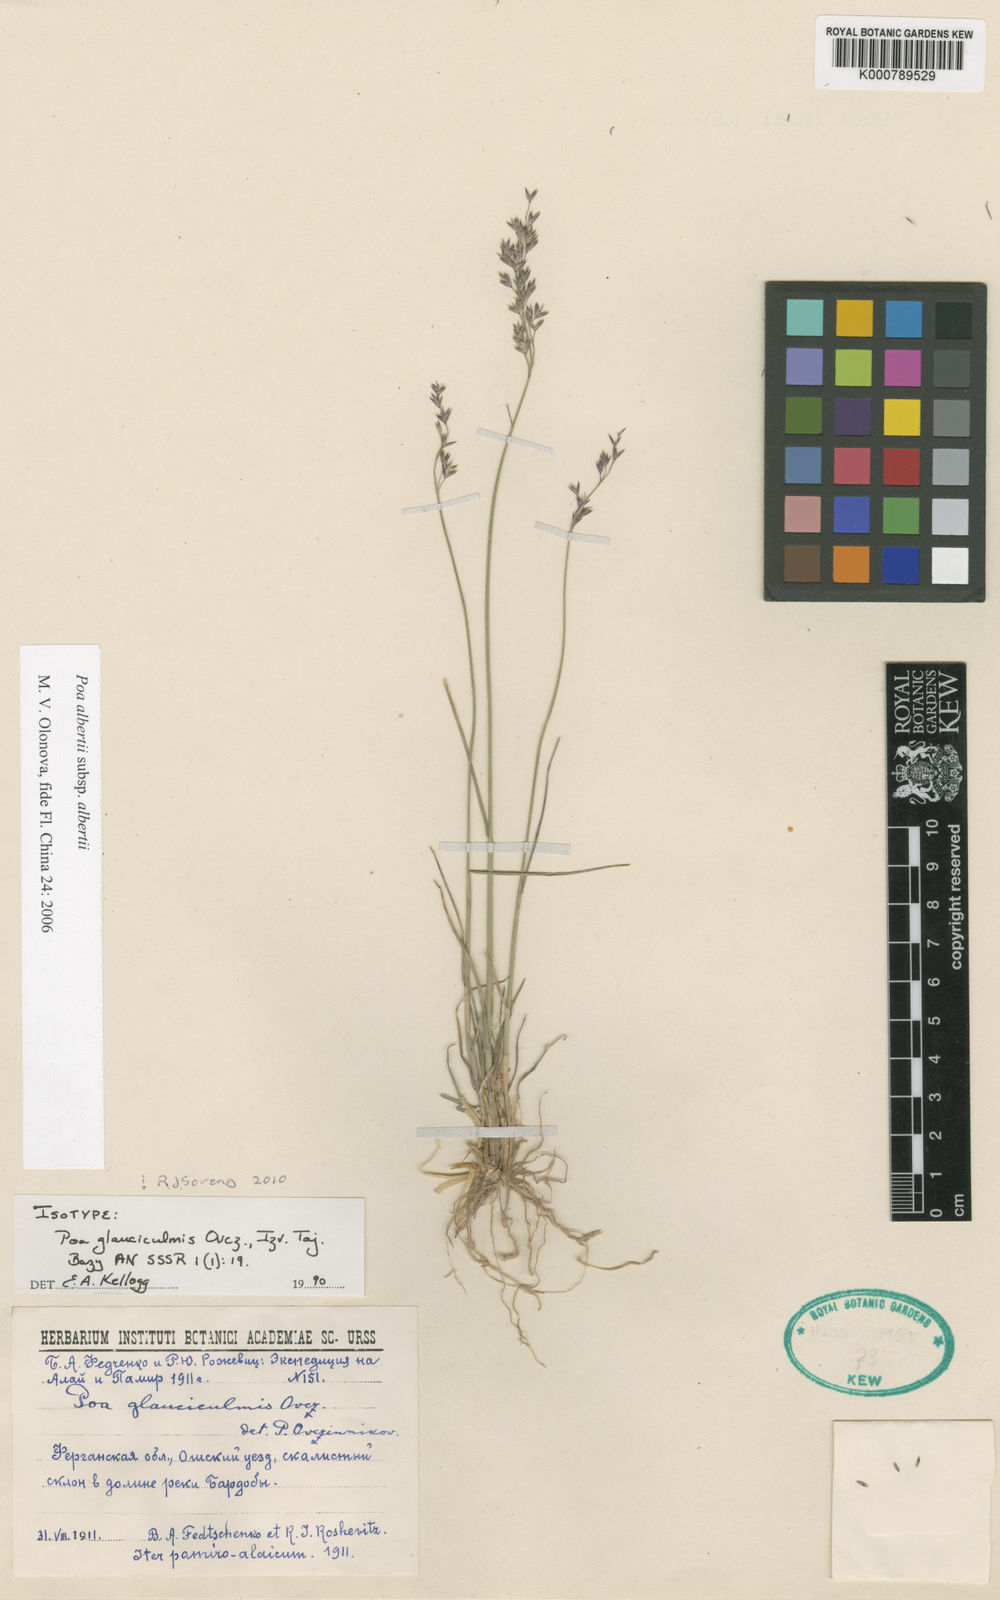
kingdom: Plantae
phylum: Tracheophyta
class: Liliopsida
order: Poales
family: Poaceae
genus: Poa
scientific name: Poa alberti
